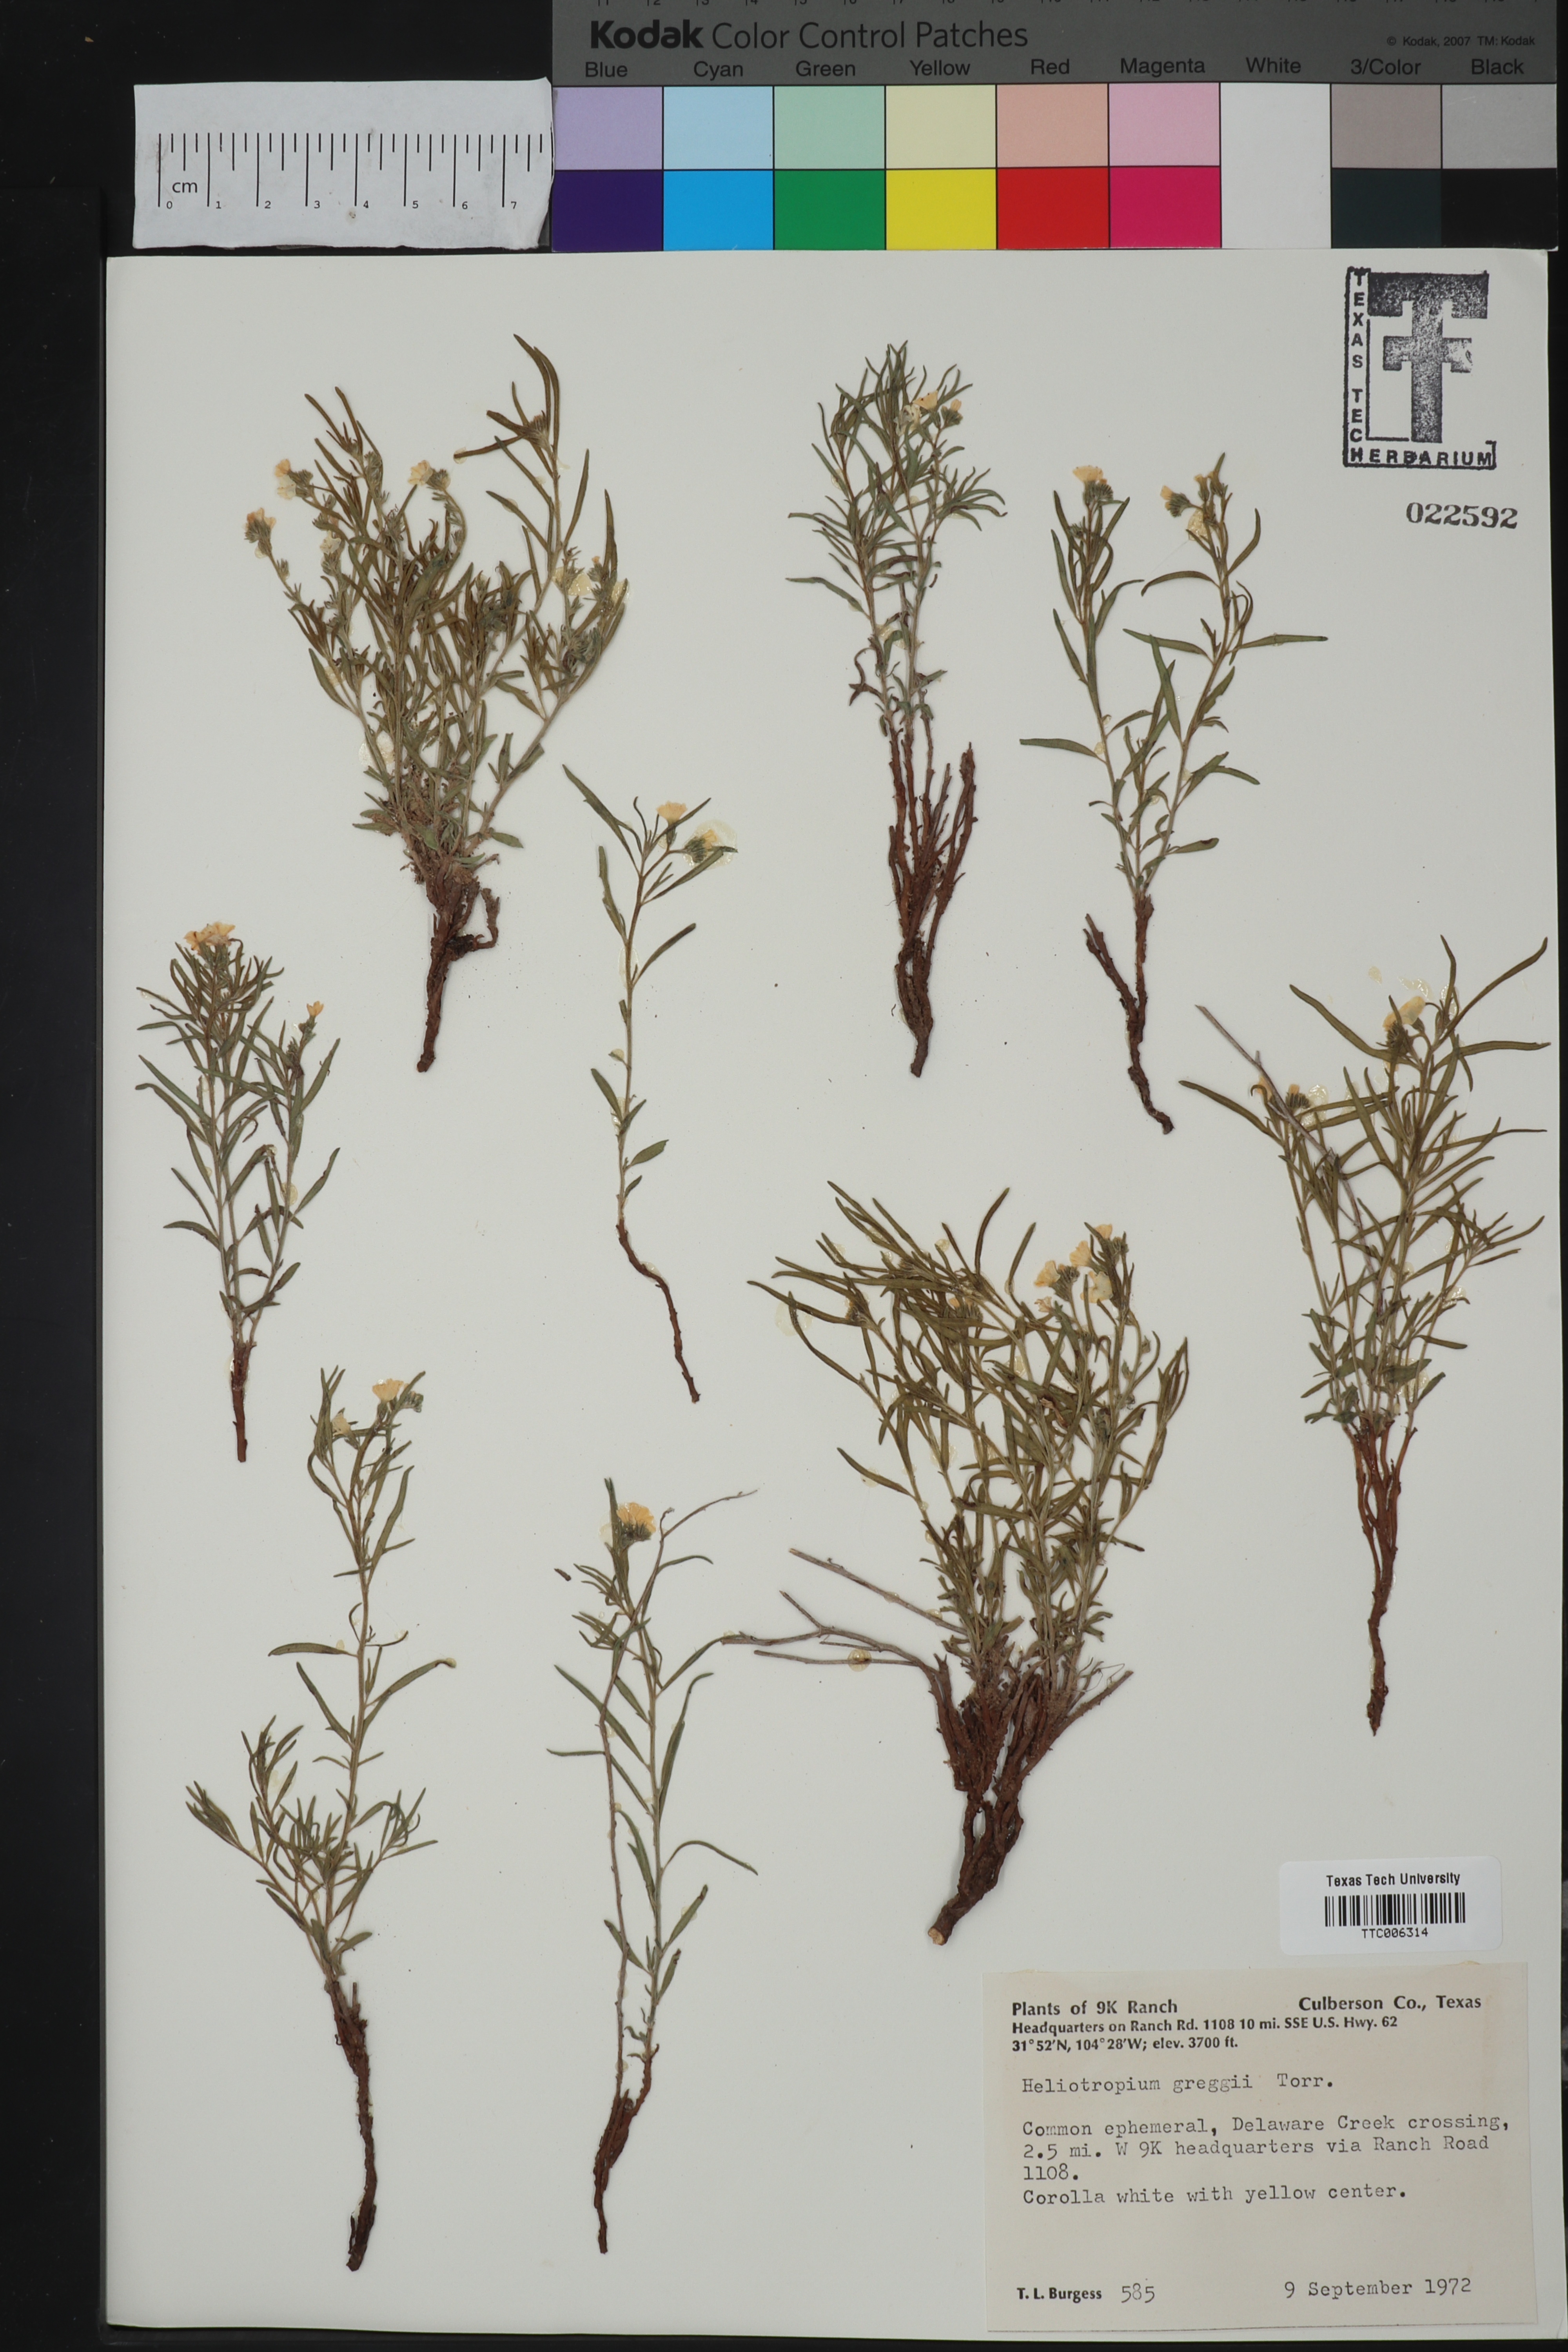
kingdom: Plantae
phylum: Tracheophyta
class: Magnoliopsida
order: Boraginales
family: Heliotropiaceae
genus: Euploca
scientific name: Euploca greggii
